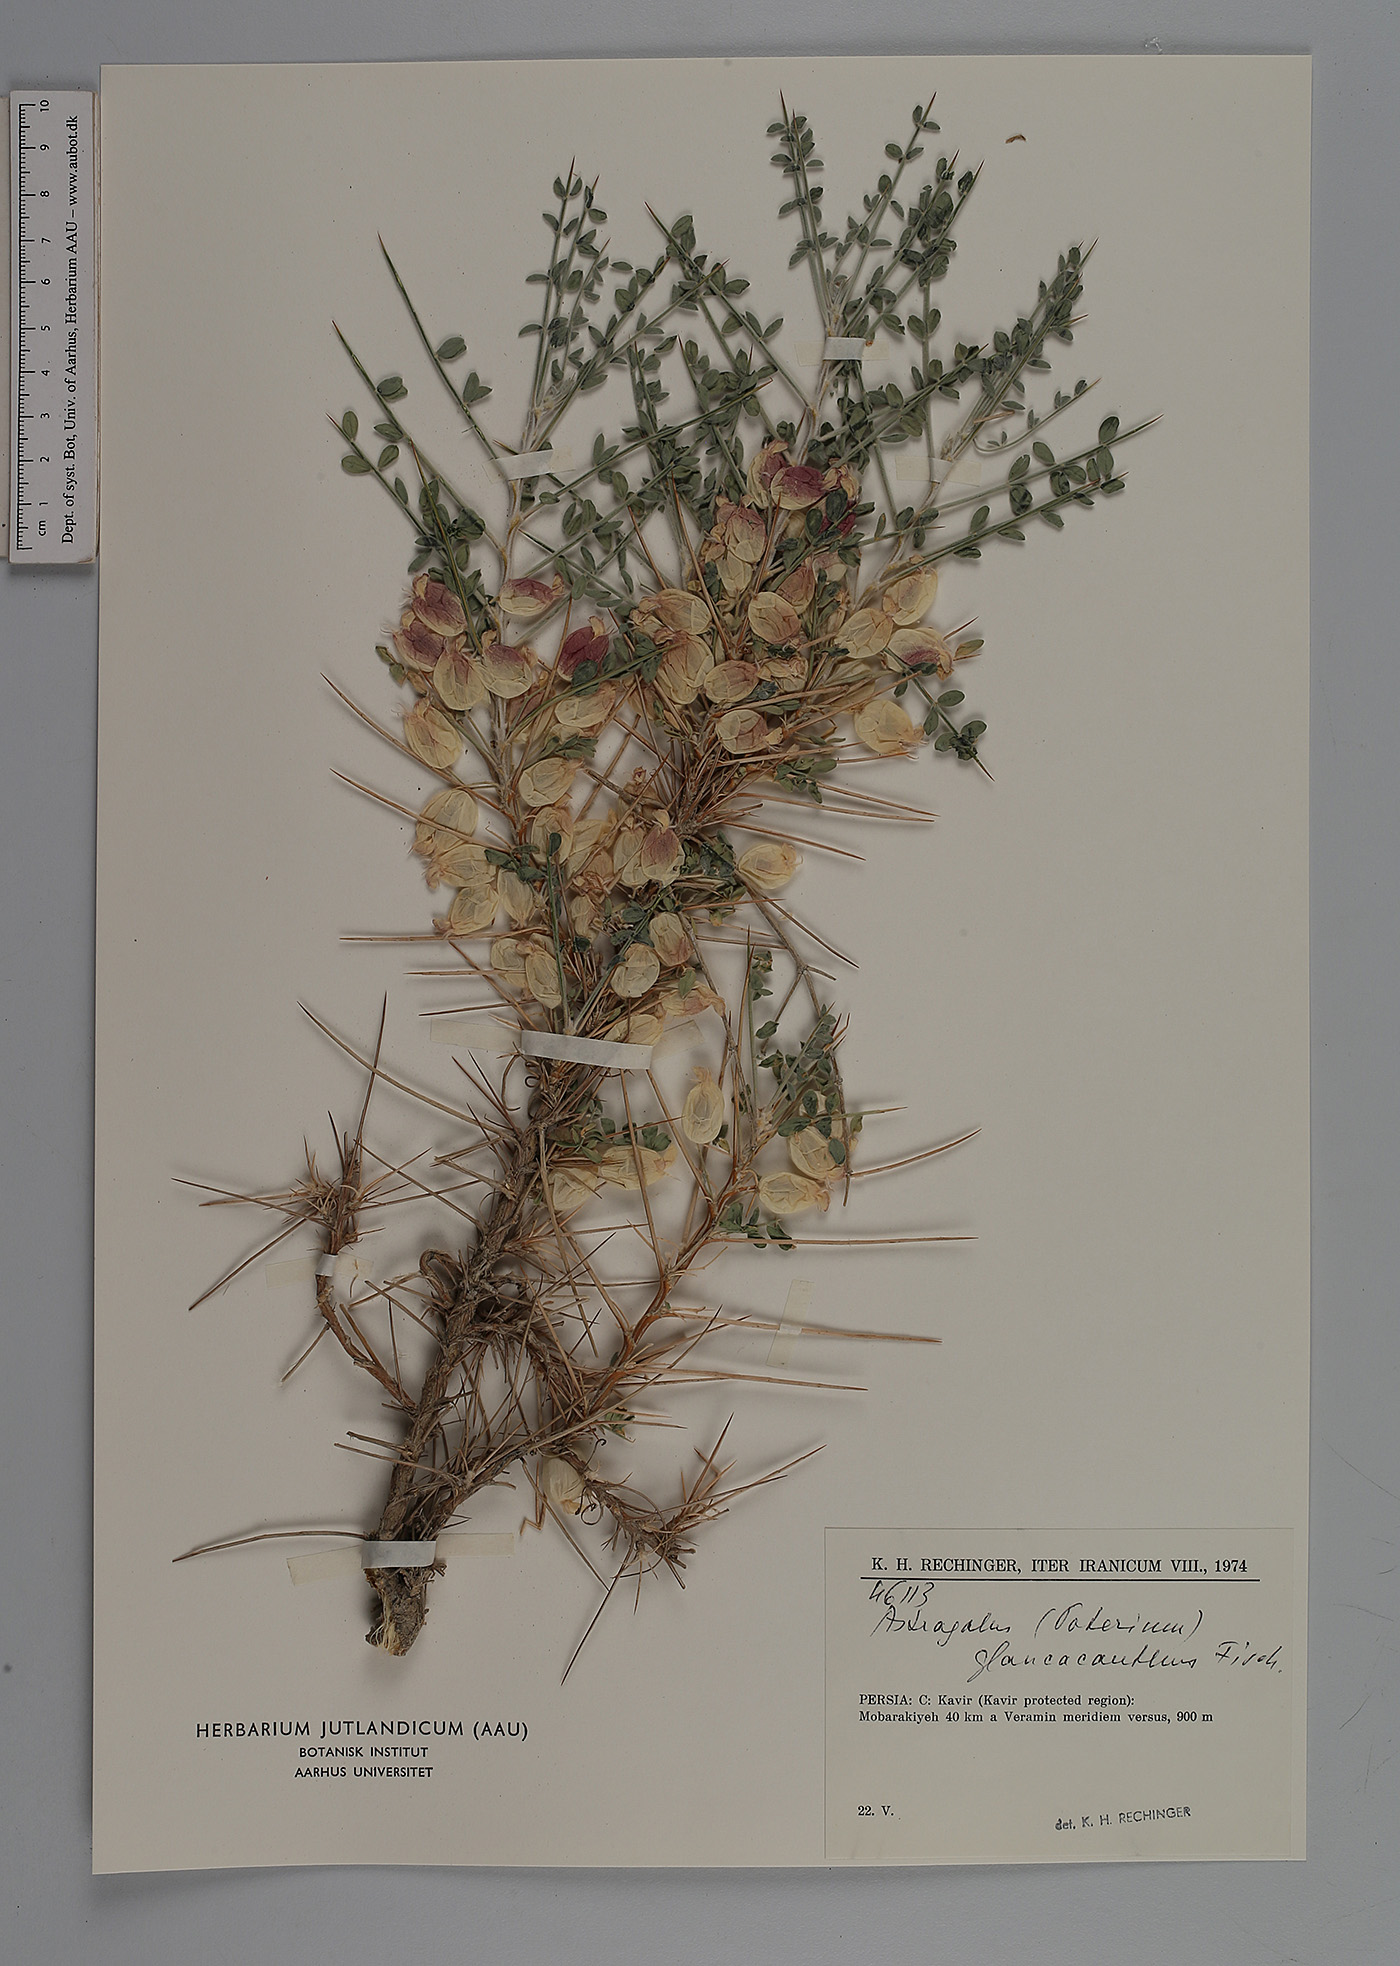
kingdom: Plantae
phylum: Tracheophyta
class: Magnoliopsida
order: Fabales
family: Fabaceae
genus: Astragalus
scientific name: Astragalus glaucacanthos
